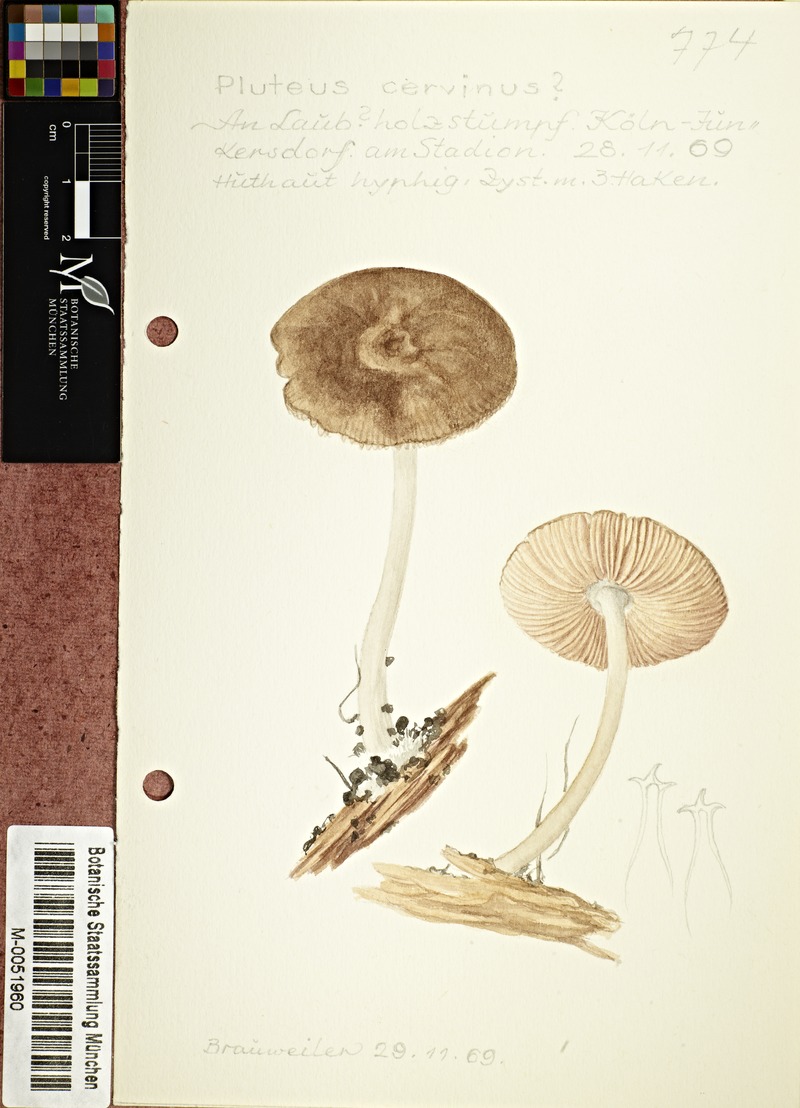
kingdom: Fungi
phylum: Basidiomycota
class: Agaricomycetes
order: Agaricales
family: Pluteaceae
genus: Pluteus
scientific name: Pluteus cervinus
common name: Deer shield
